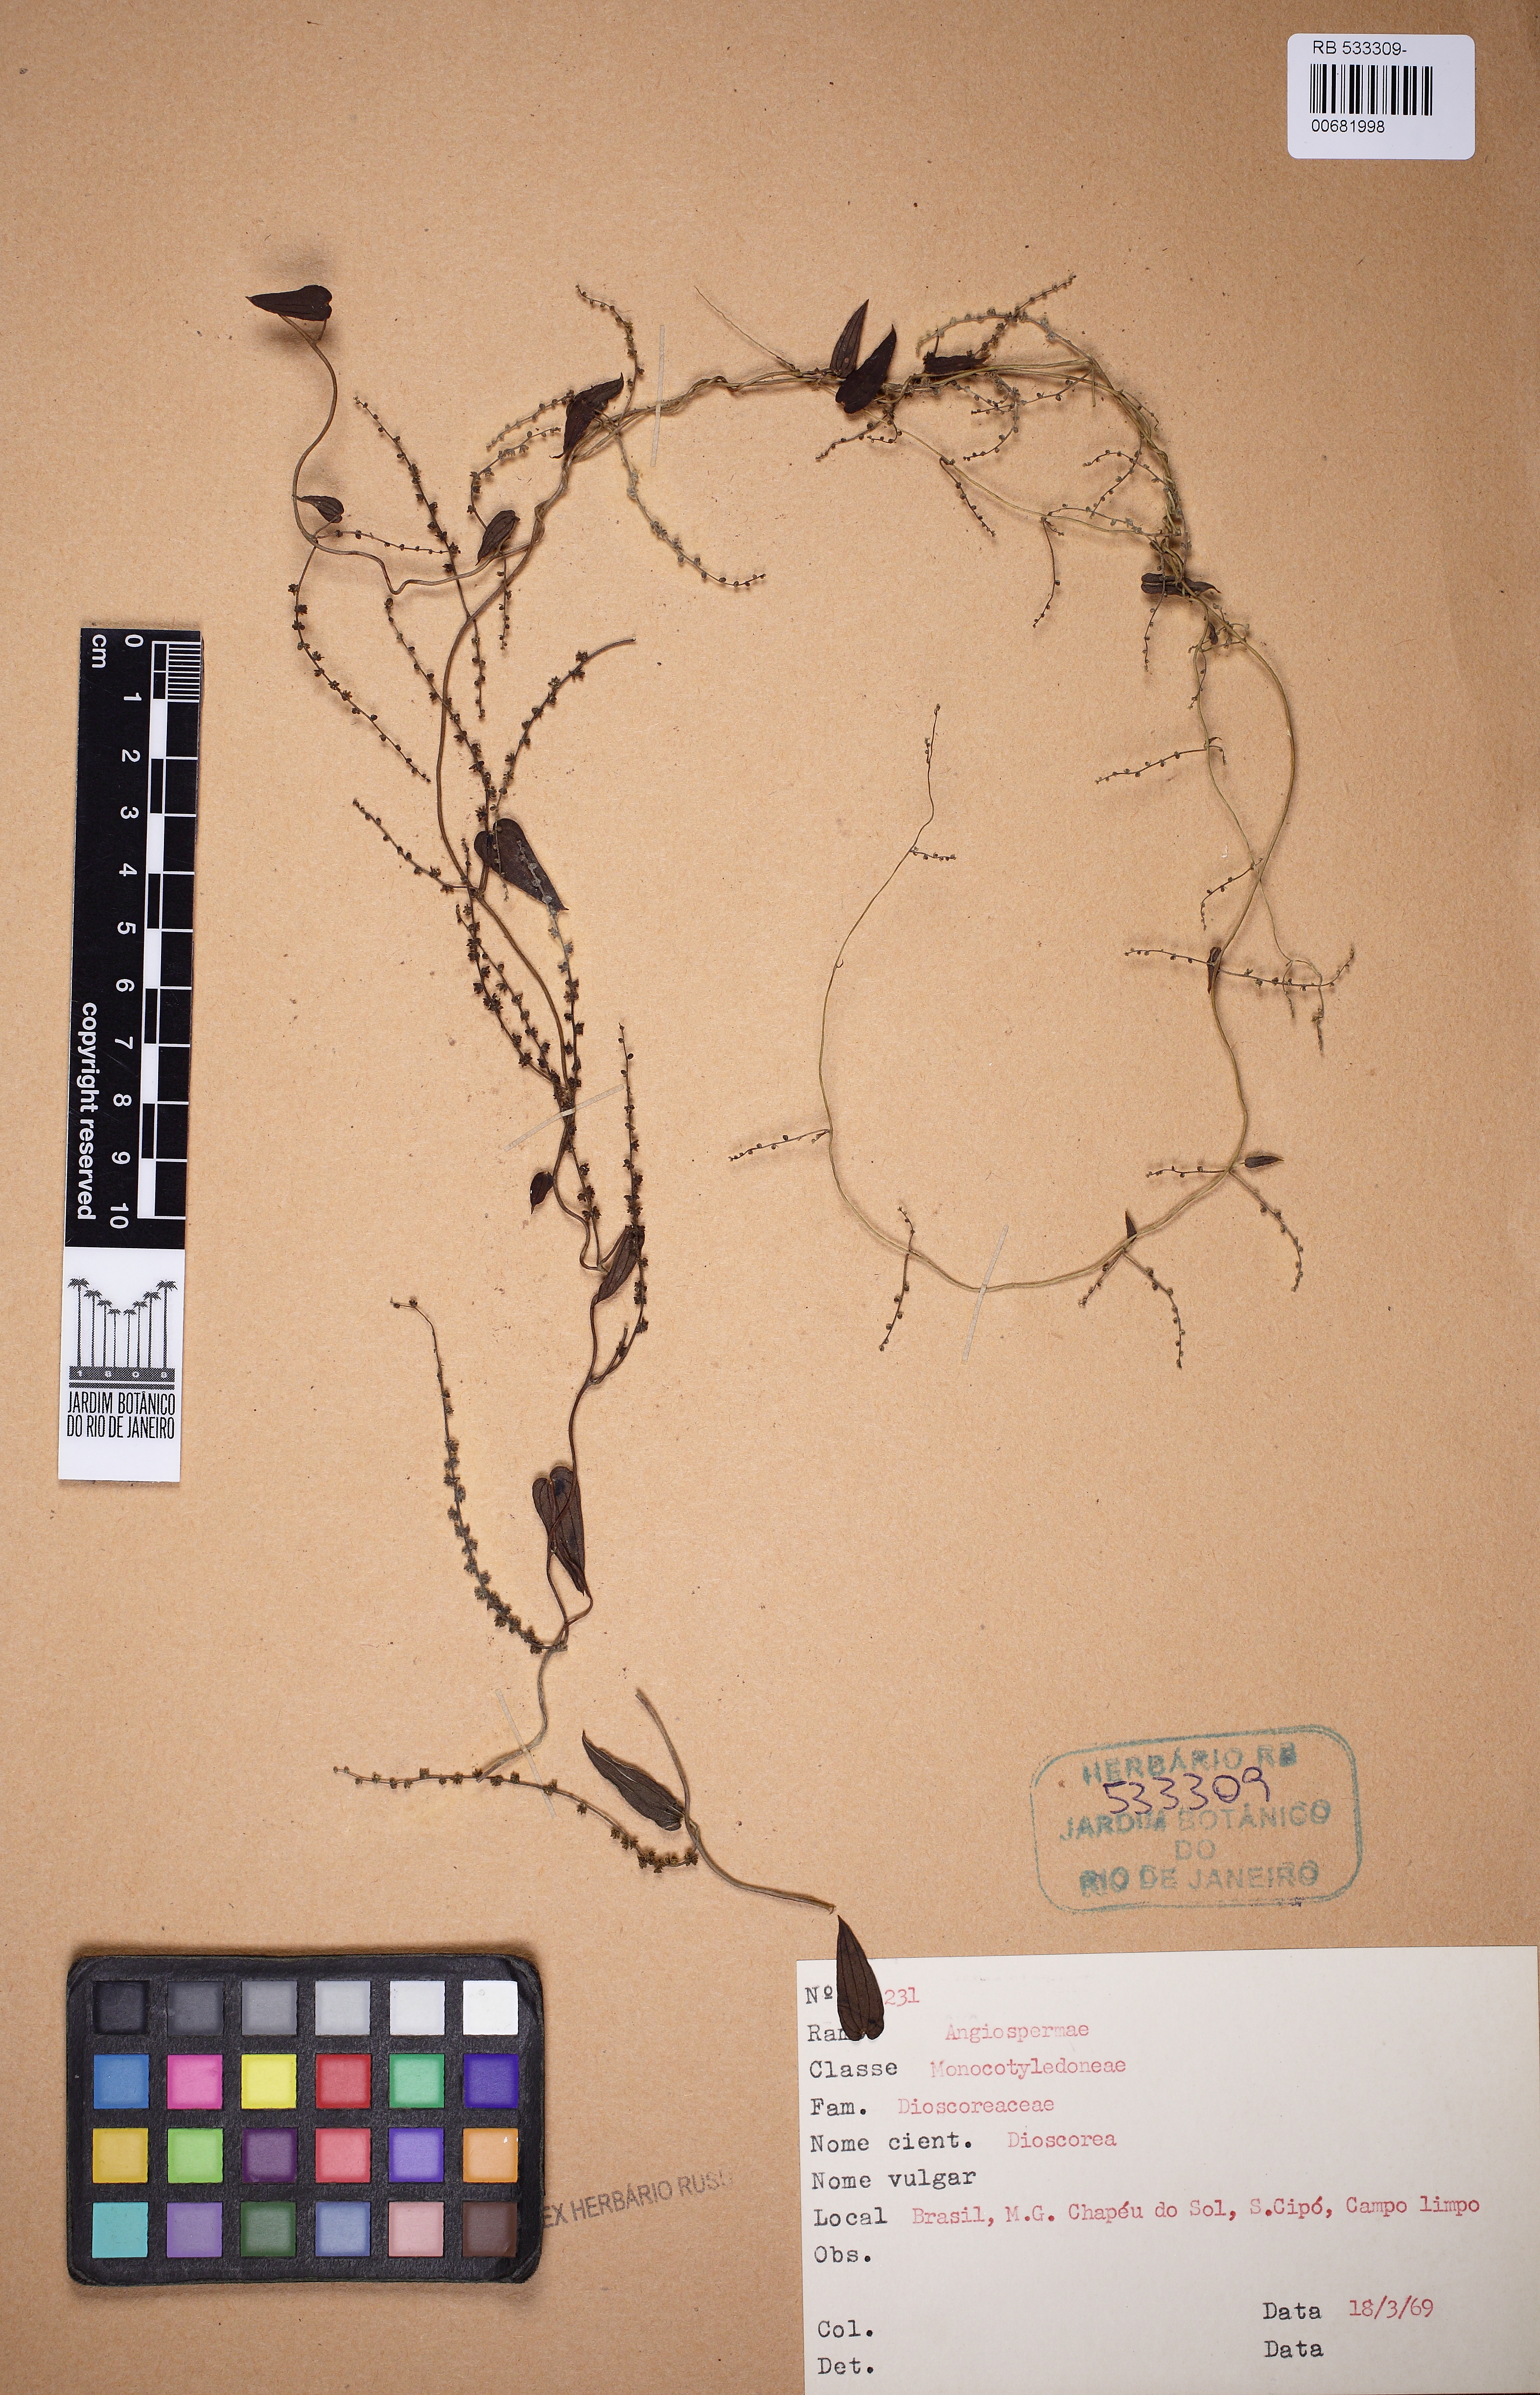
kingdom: Plantae
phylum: Tracheophyta
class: Liliopsida
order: Dioscoreales
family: Dioscoreaceae
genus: Dioscorea
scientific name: Dioscorea
